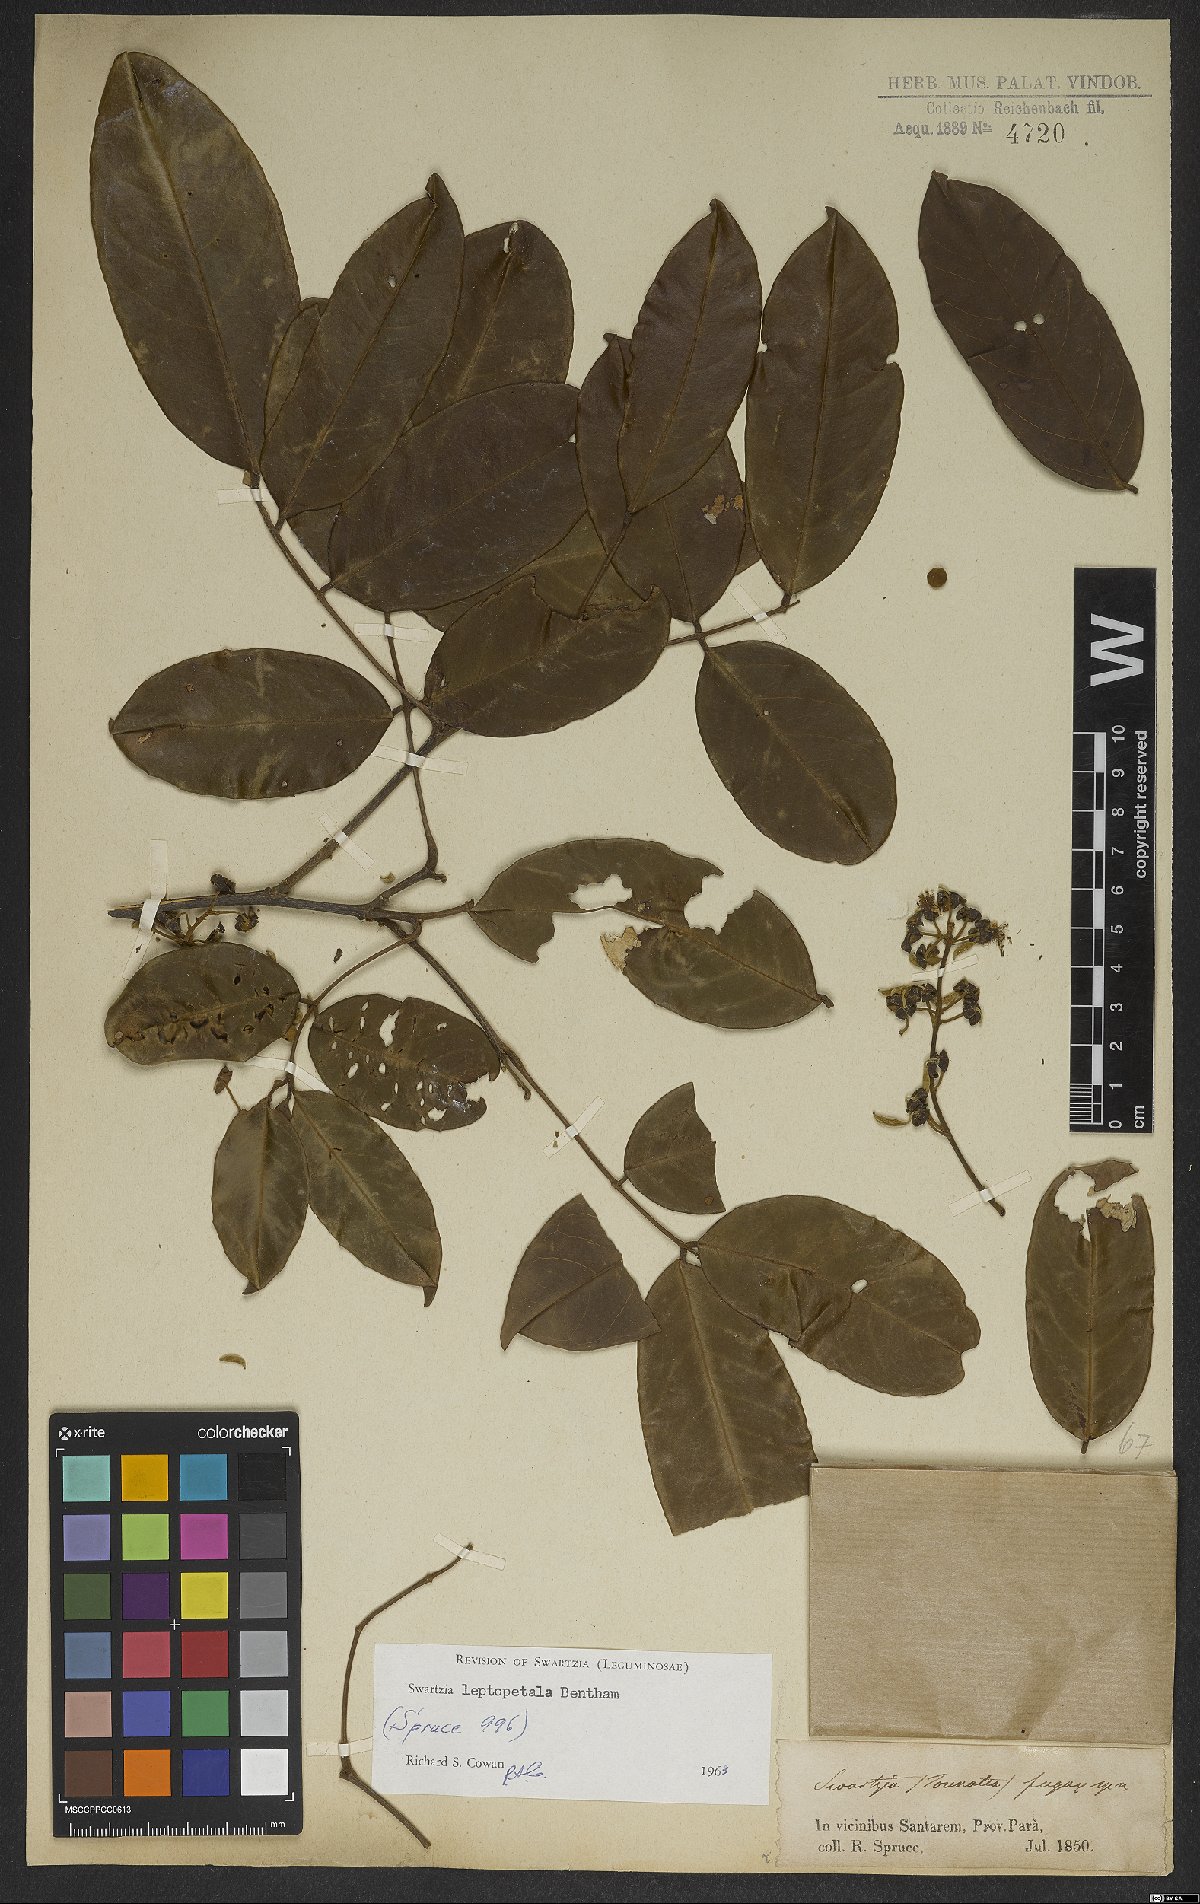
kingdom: Plantae
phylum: Tracheophyta
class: Magnoliopsida
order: Fabales
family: Fabaceae
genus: Swartzia
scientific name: Swartzia leptopetala
